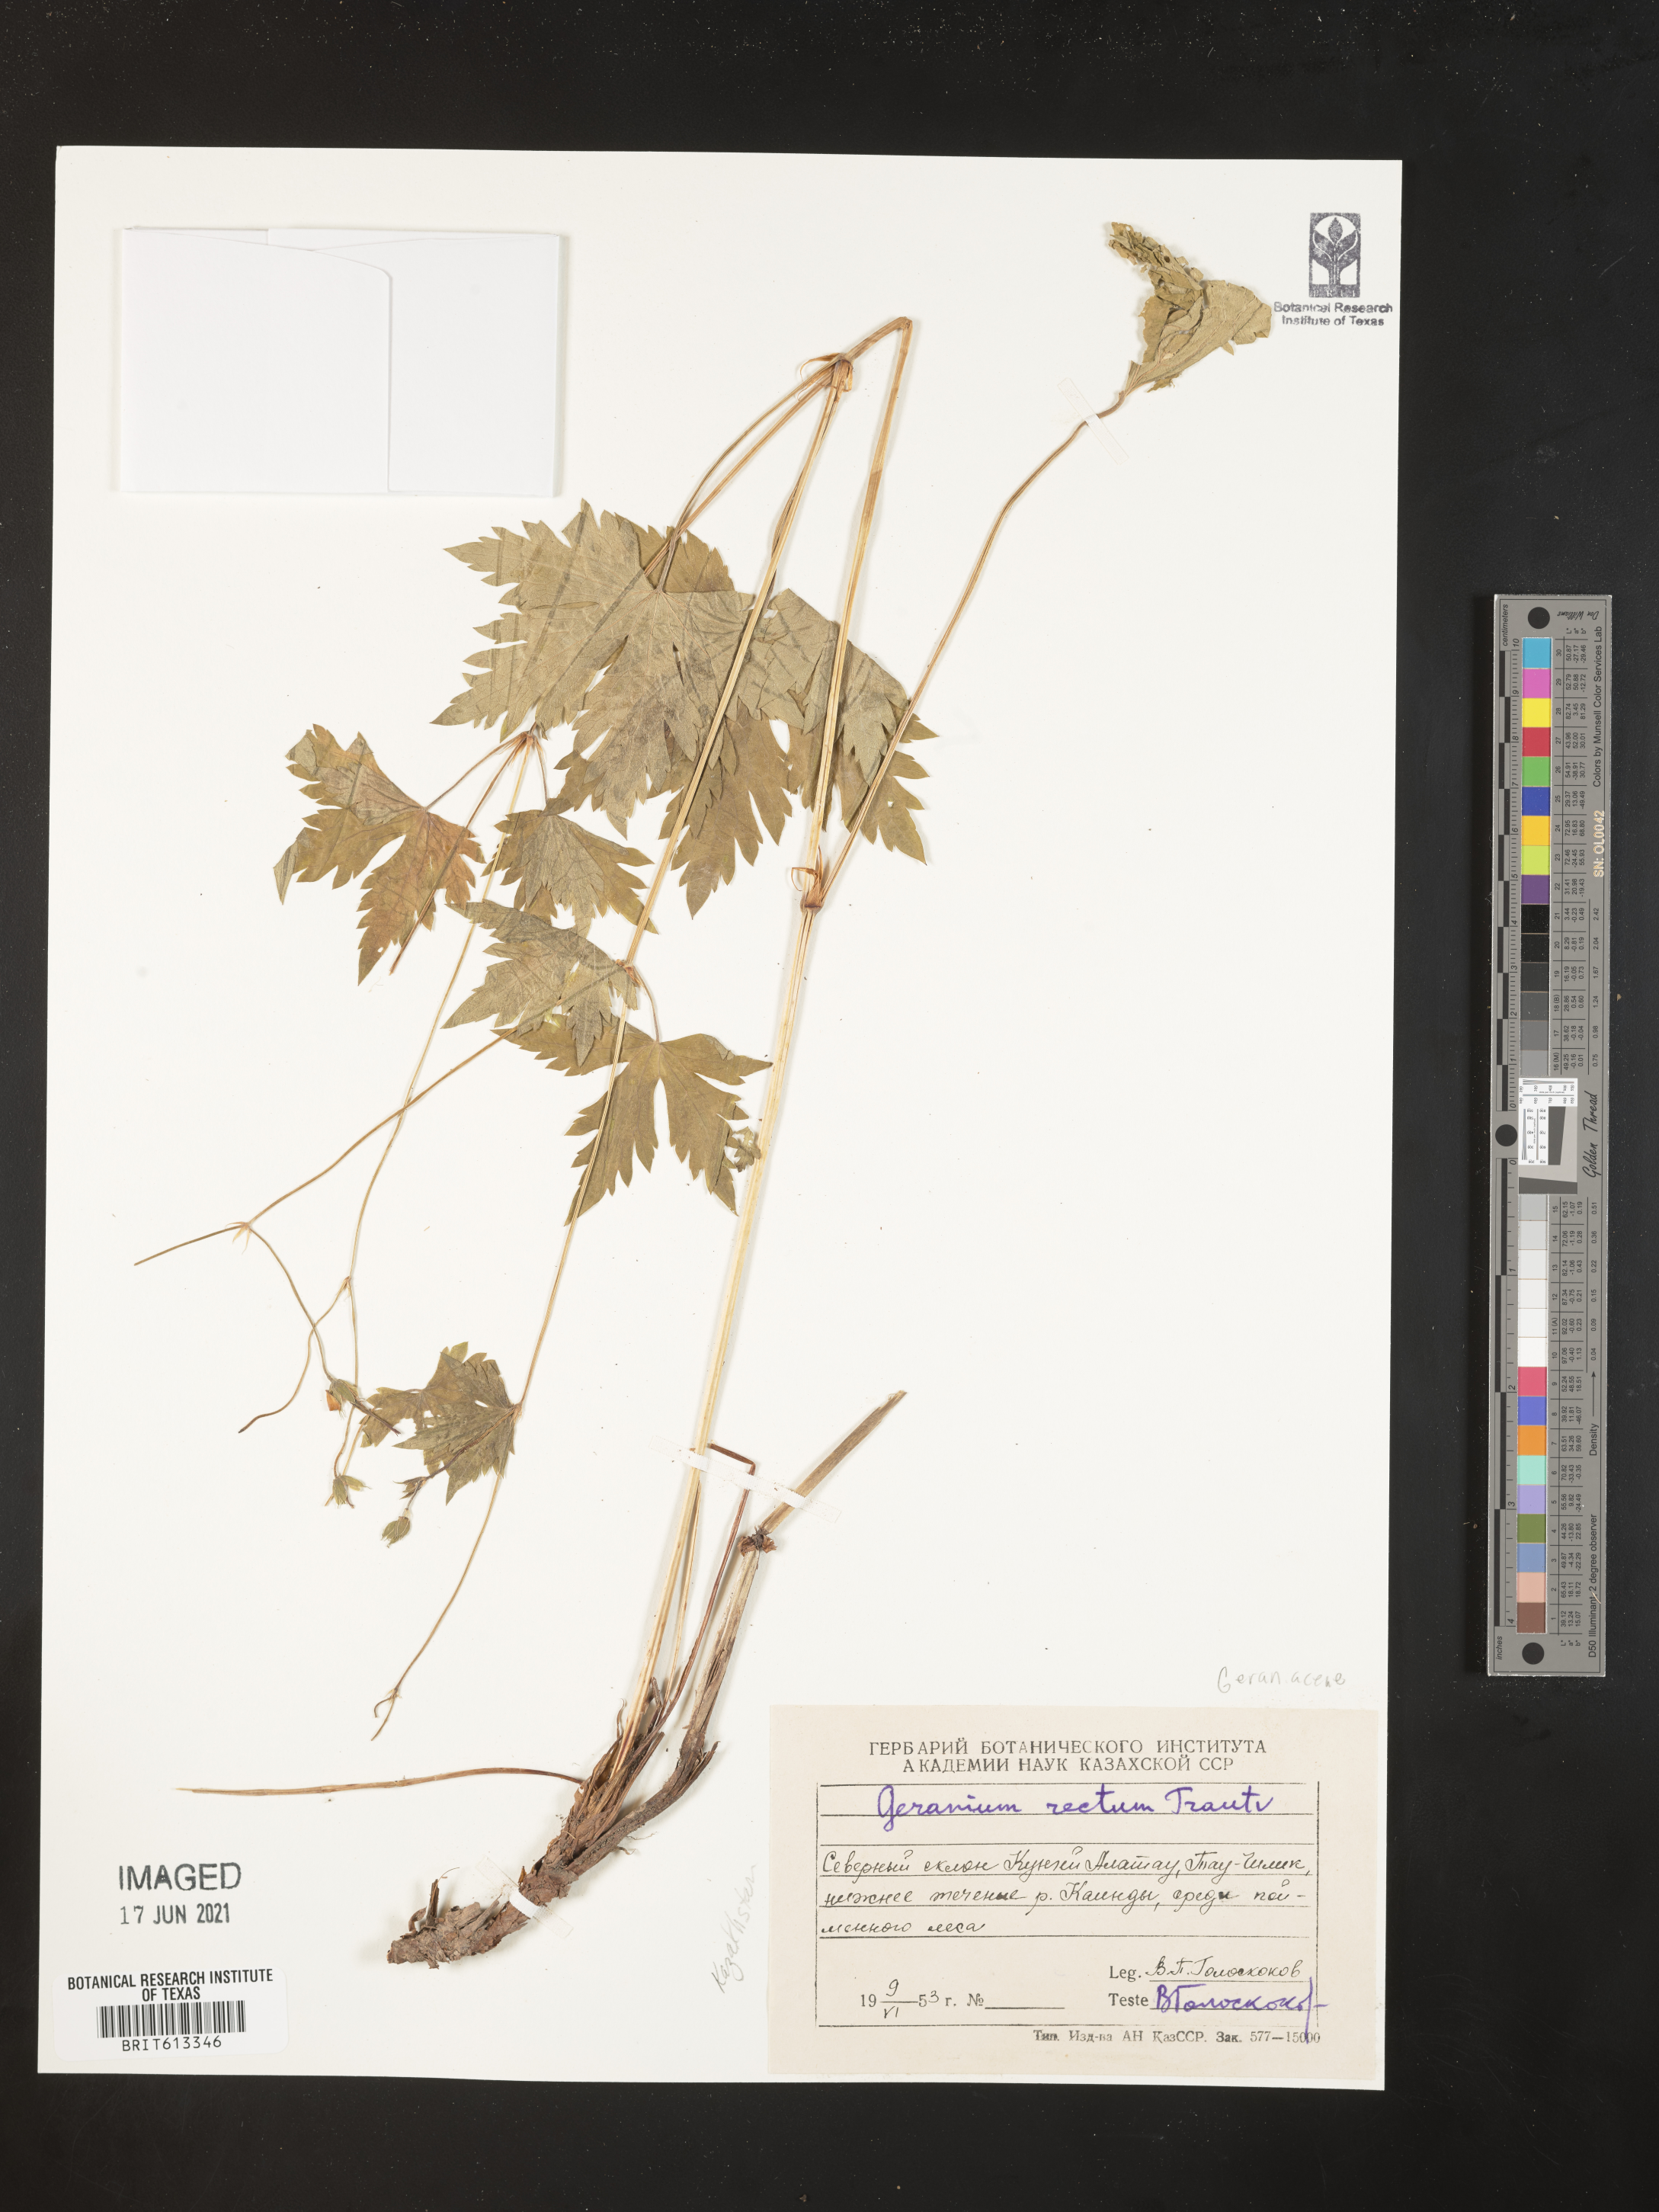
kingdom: Plantae
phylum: Tracheophyta
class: Magnoliopsida
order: Geraniales
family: Geraniaceae
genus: Geranium
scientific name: Geranium rectum
